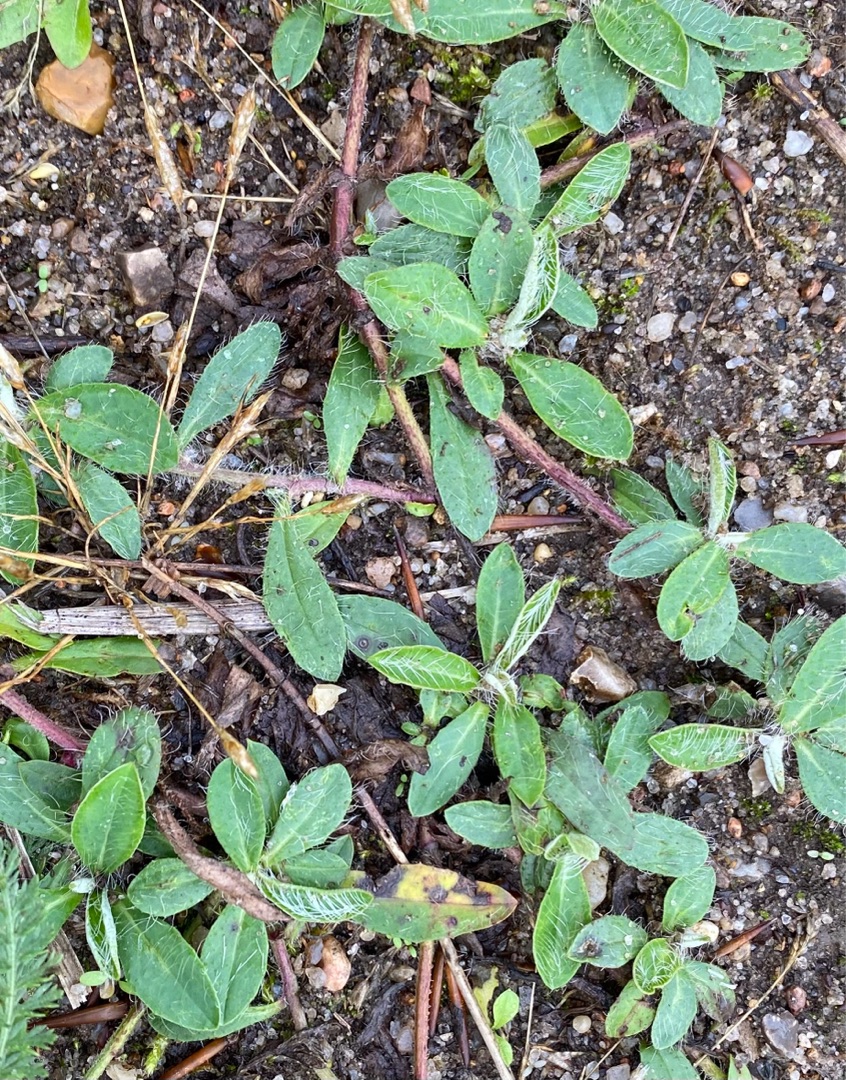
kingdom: Plantae
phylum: Tracheophyta
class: Magnoliopsida
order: Asterales
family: Asteraceae
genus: Pilosella
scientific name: Pilosella officinarum
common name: Håret høgeurt
